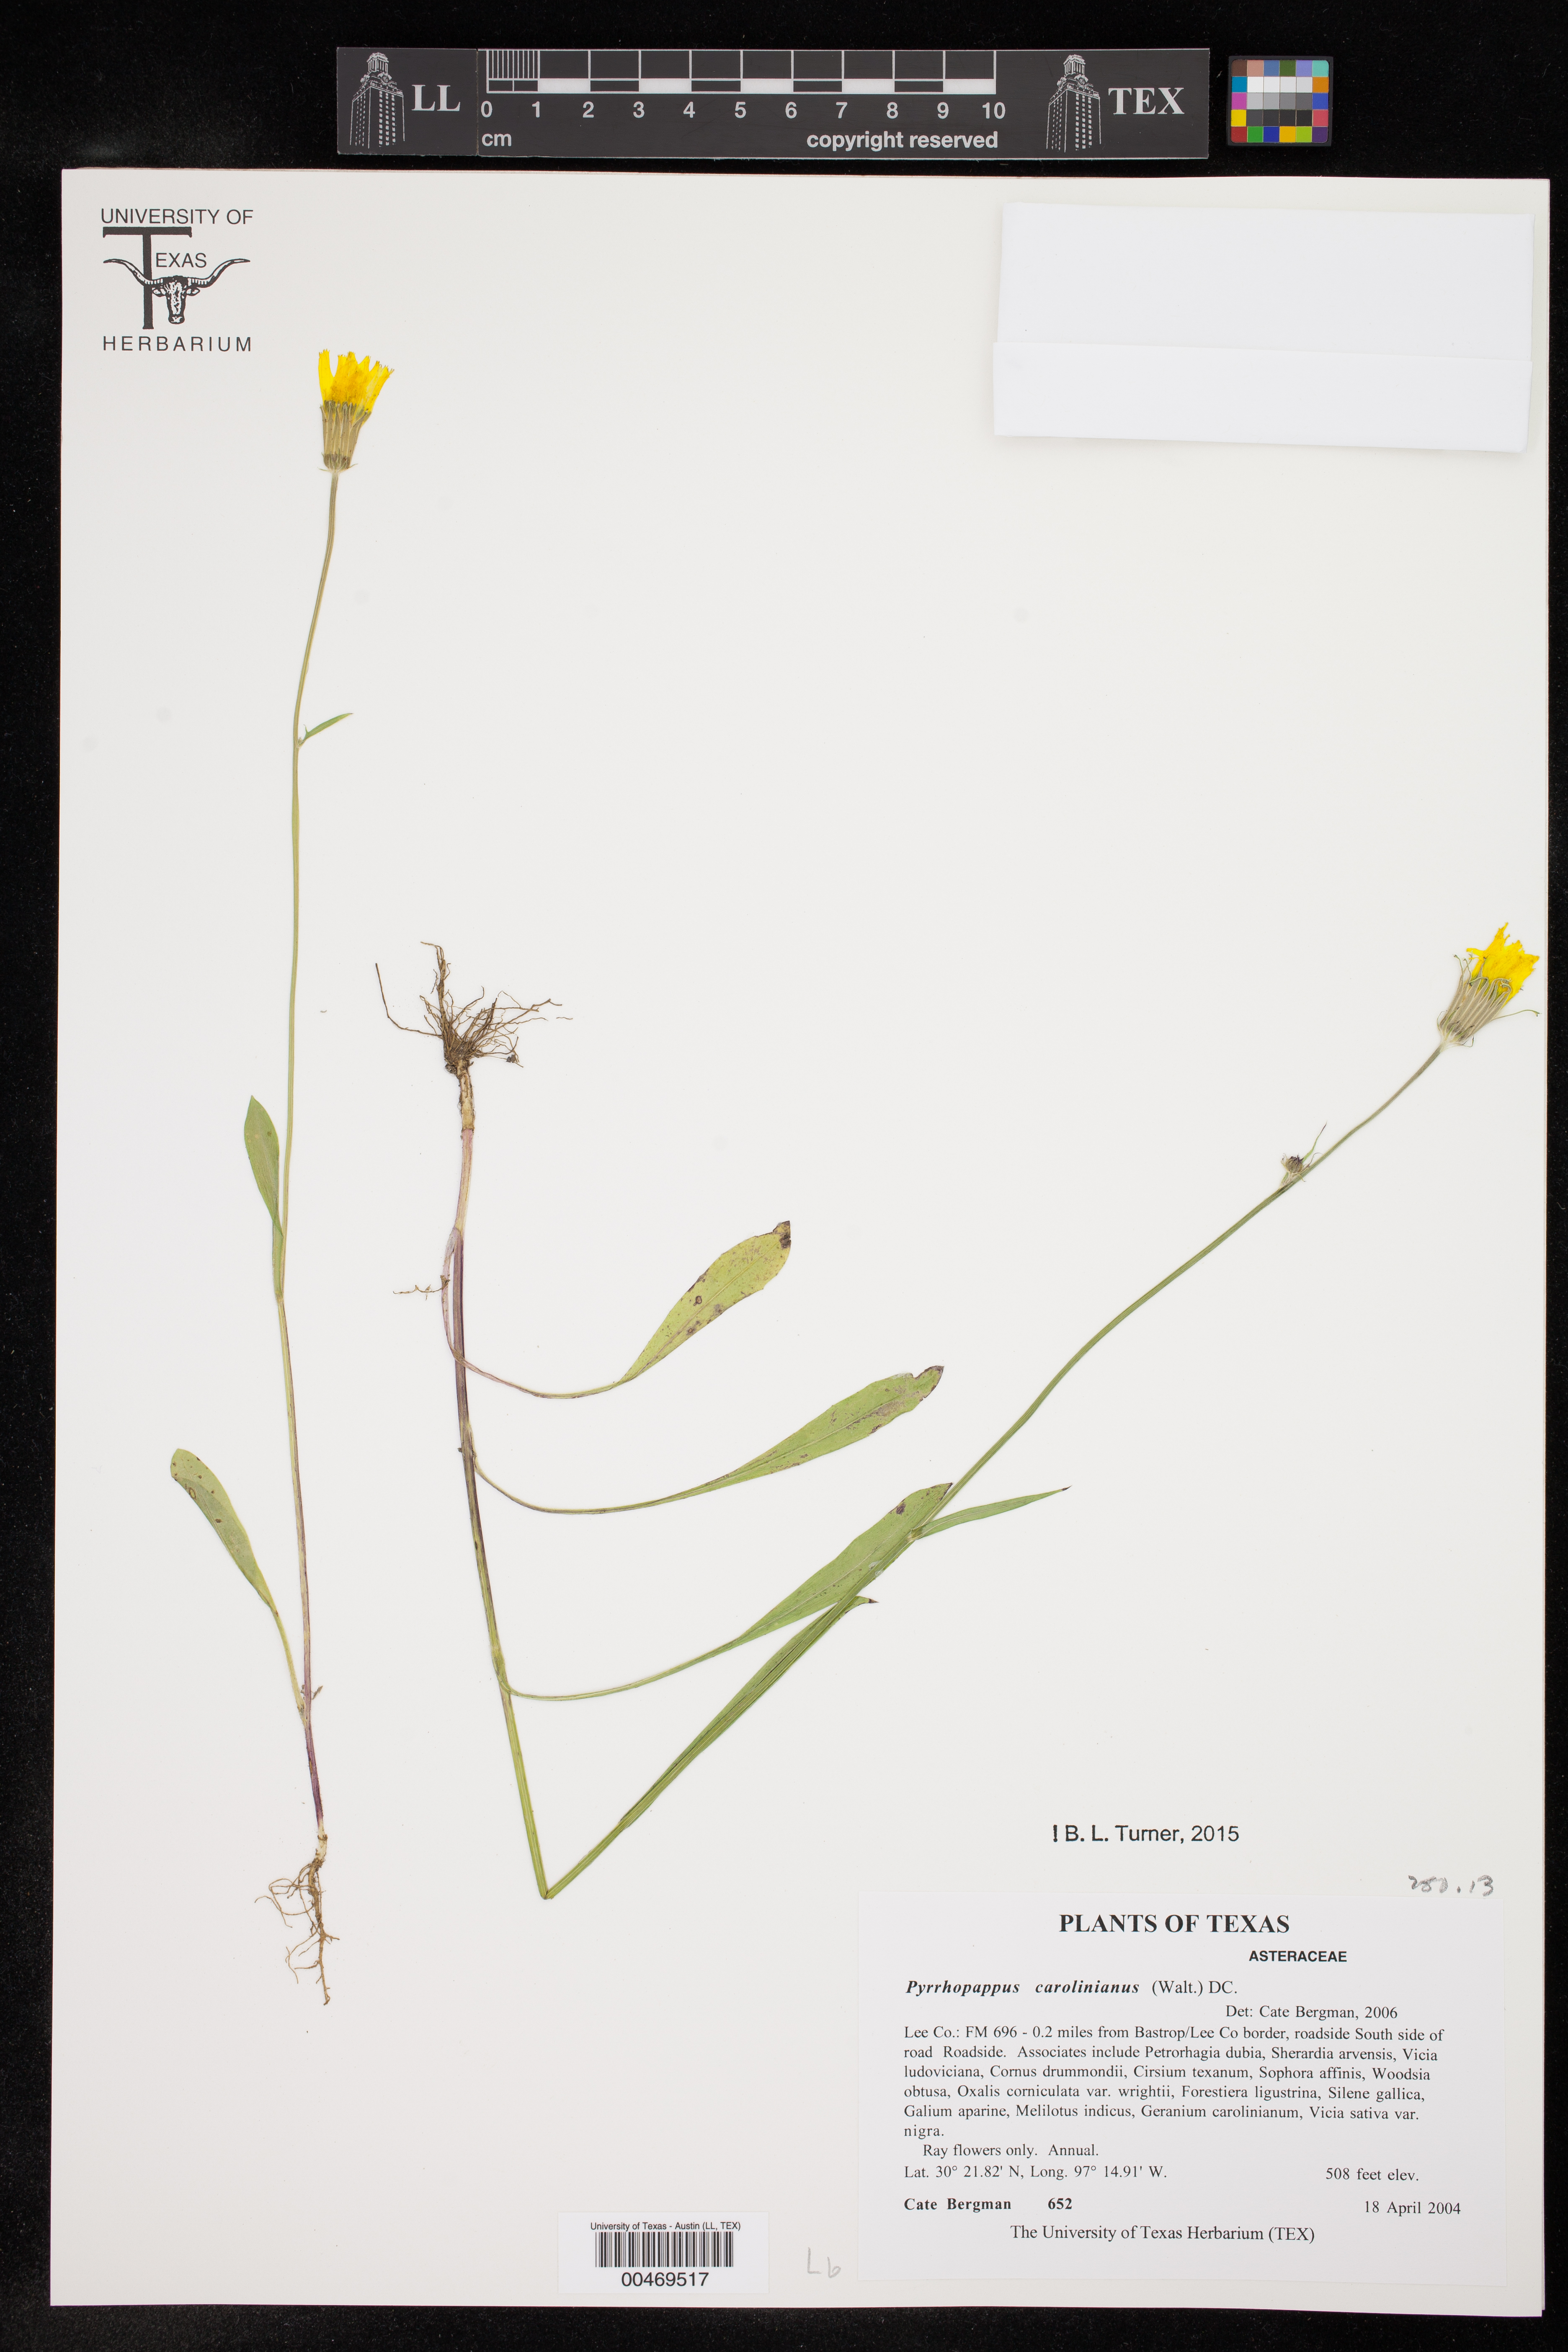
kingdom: Plantae
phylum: Tracheophyta
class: Magnoliopsida
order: Asterales
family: Asteraceae
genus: Pyrrhopappus
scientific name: Pyrrhopappus carolinianus
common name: Carolina desert-chicory
